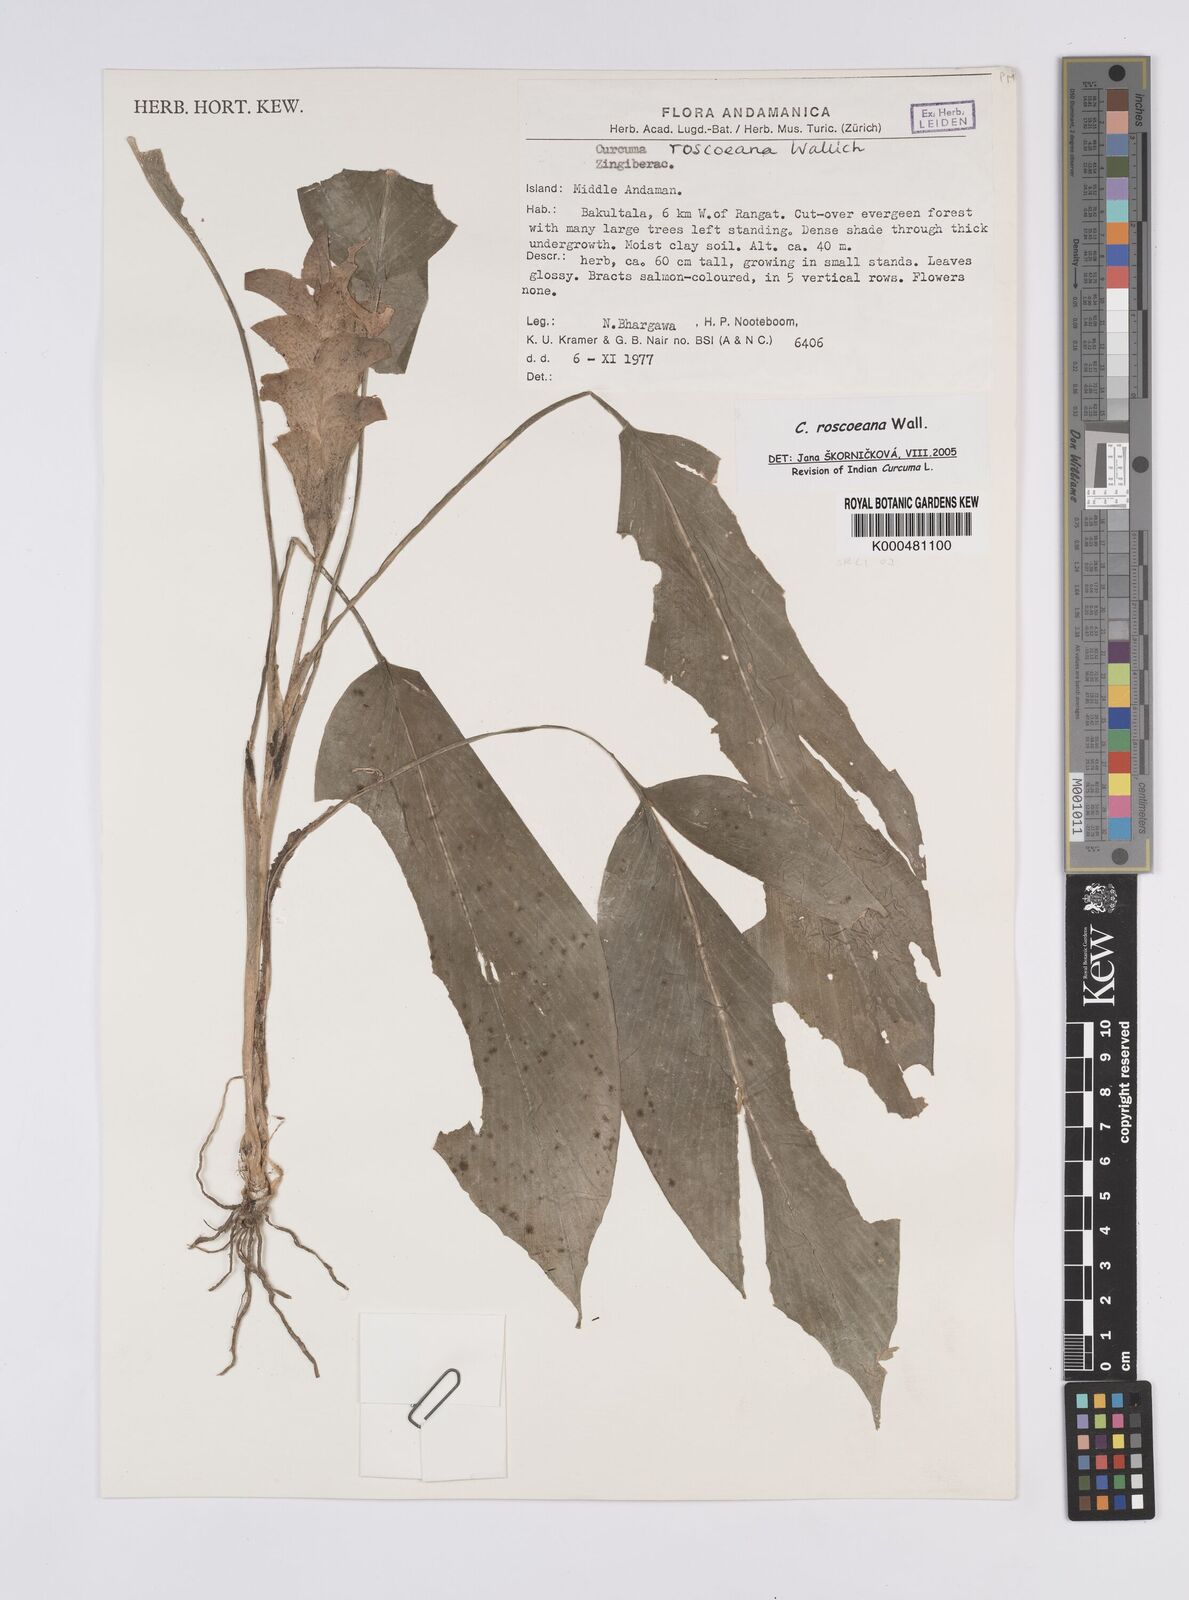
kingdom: Plantae
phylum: Tracheophyta
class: Liliopsida
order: Zingiberales
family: Zingiberaceae
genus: Curcuma
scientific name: Curcuma roscoeana
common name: Jewel of burma
